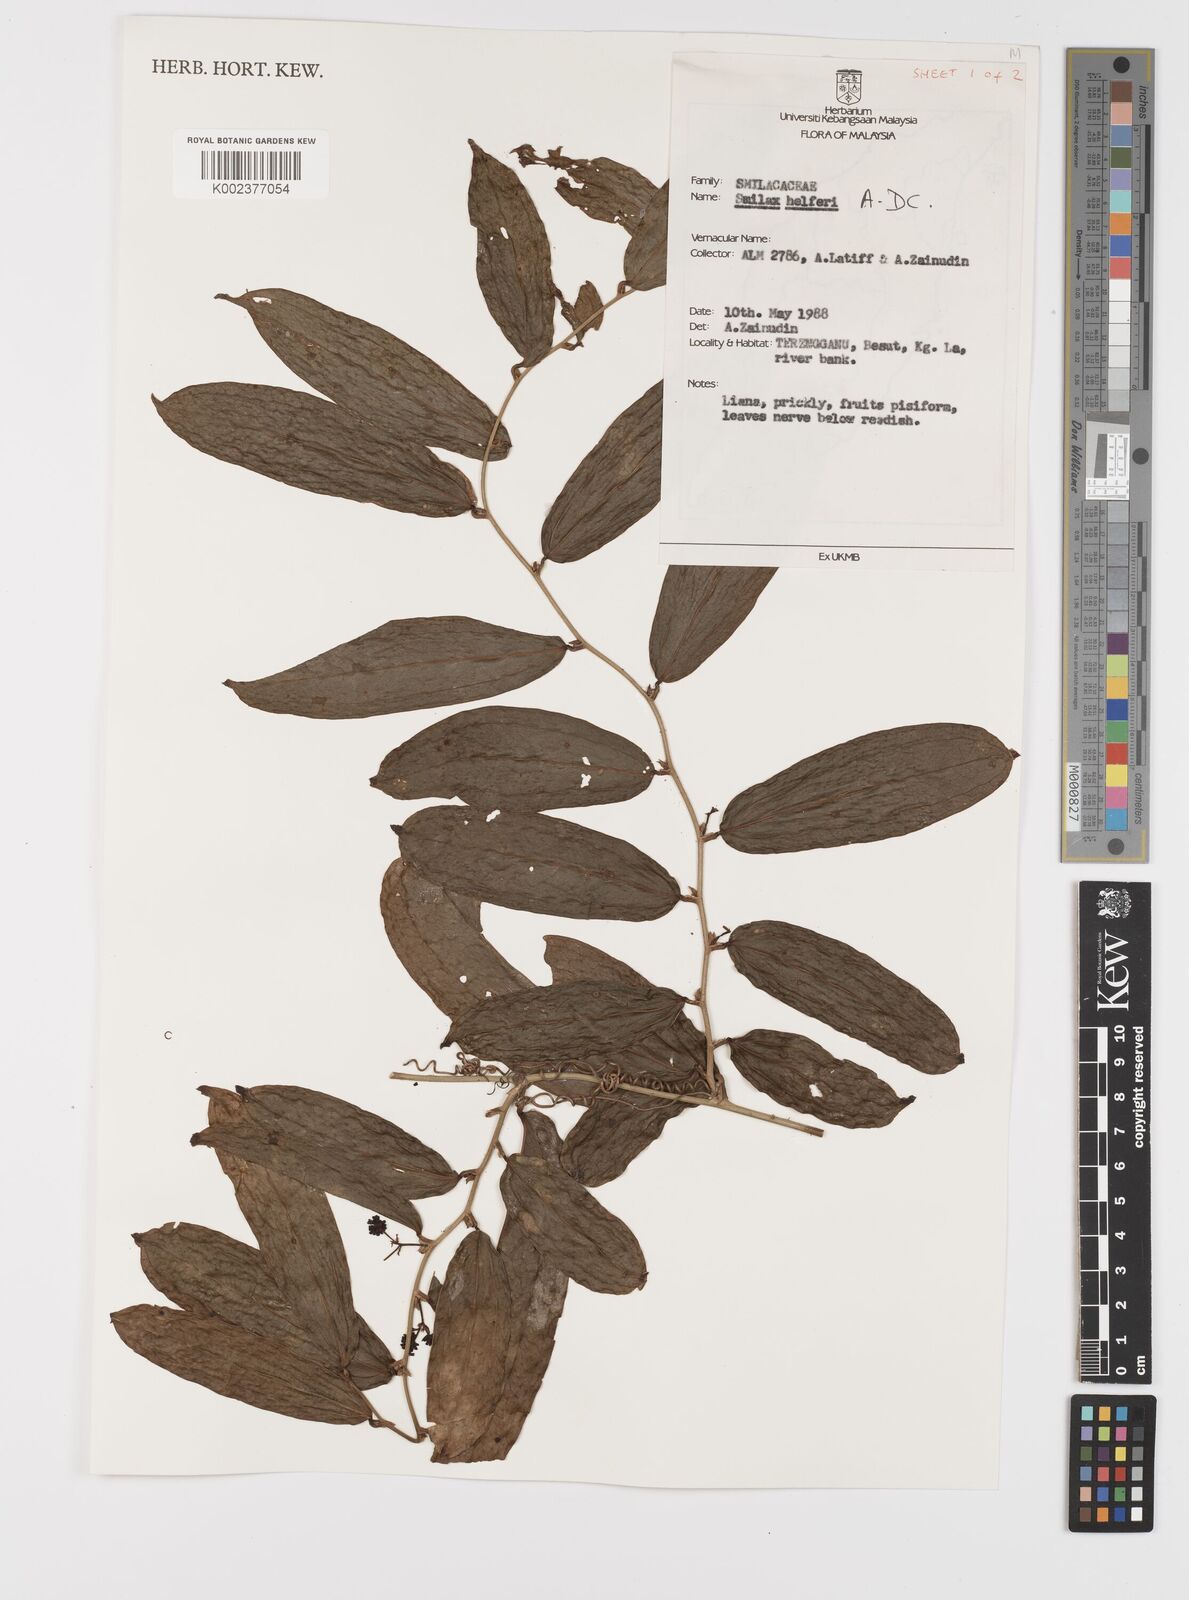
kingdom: Plantae
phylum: Tracheophyta
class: Liliopsida
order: Liliales
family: Smilacaceae
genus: Smilax
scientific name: Smilax luzonensis
